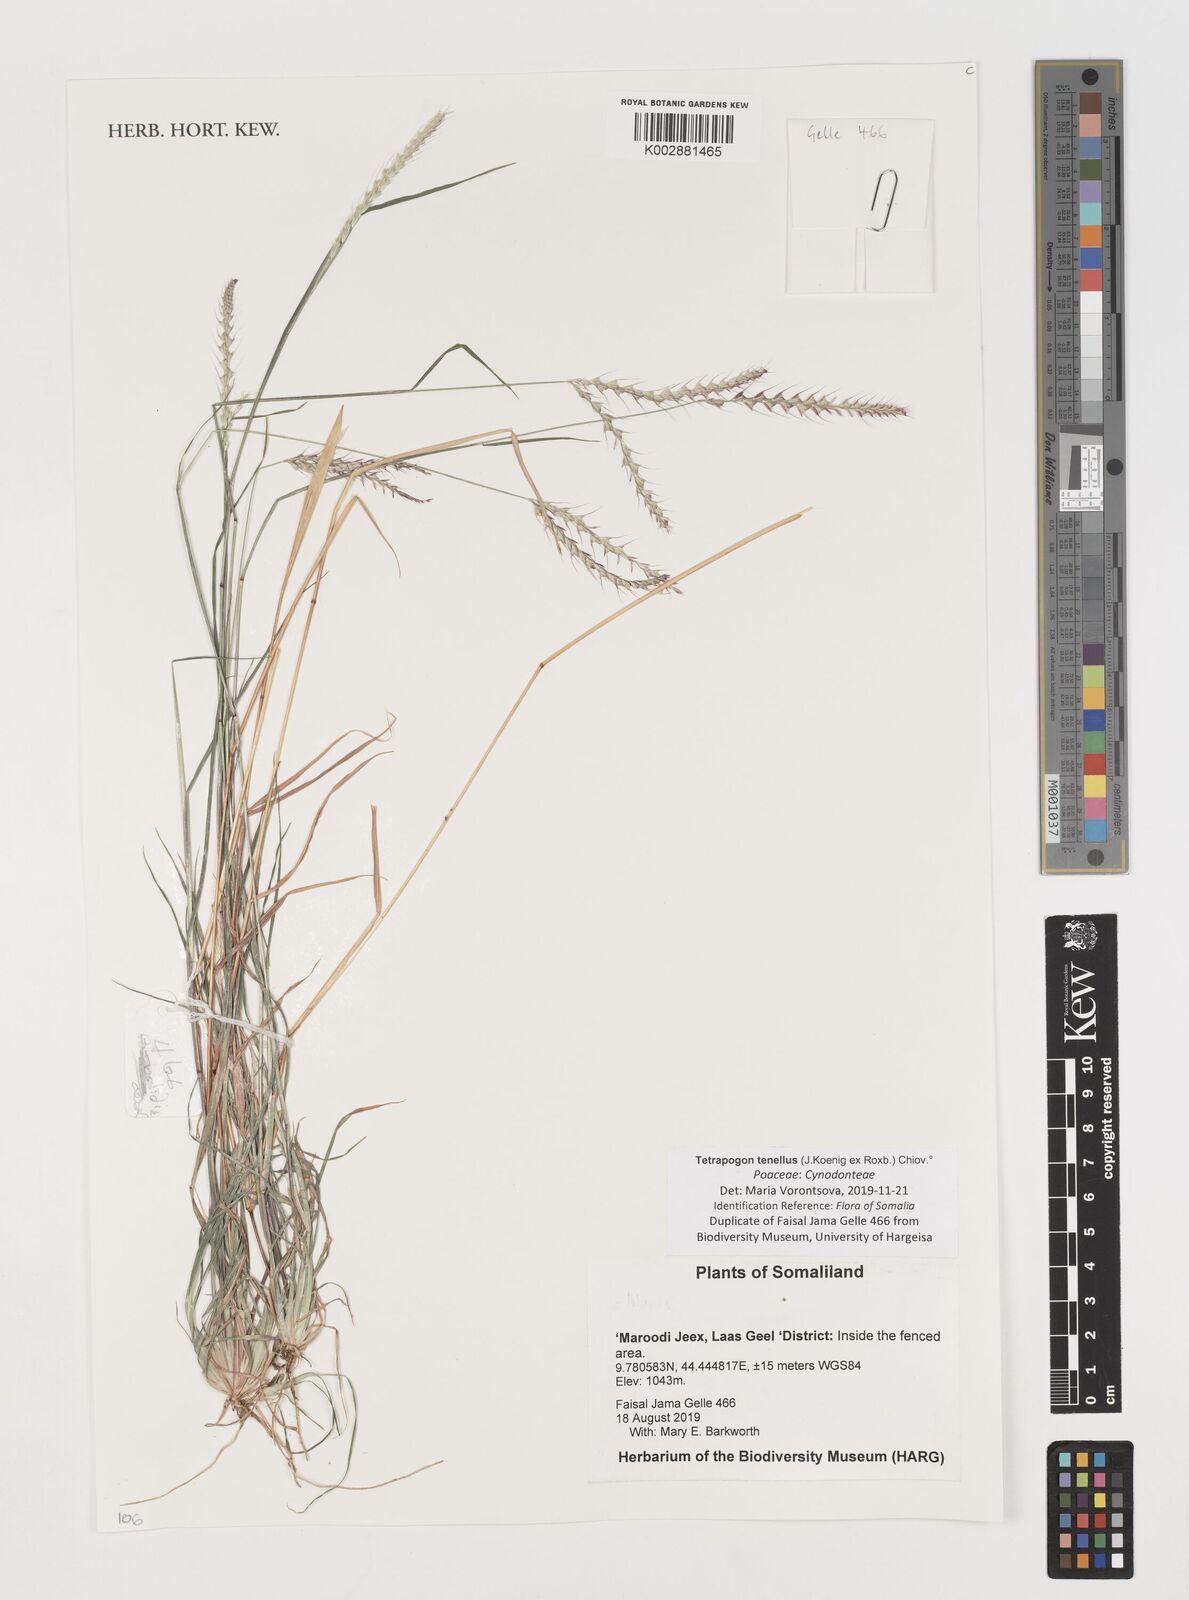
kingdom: Plantae
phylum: Tracheophyta
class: Liliopsida
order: Poales
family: Poaceae
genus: Tetrapogon
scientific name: Tetrapogon tenellus
